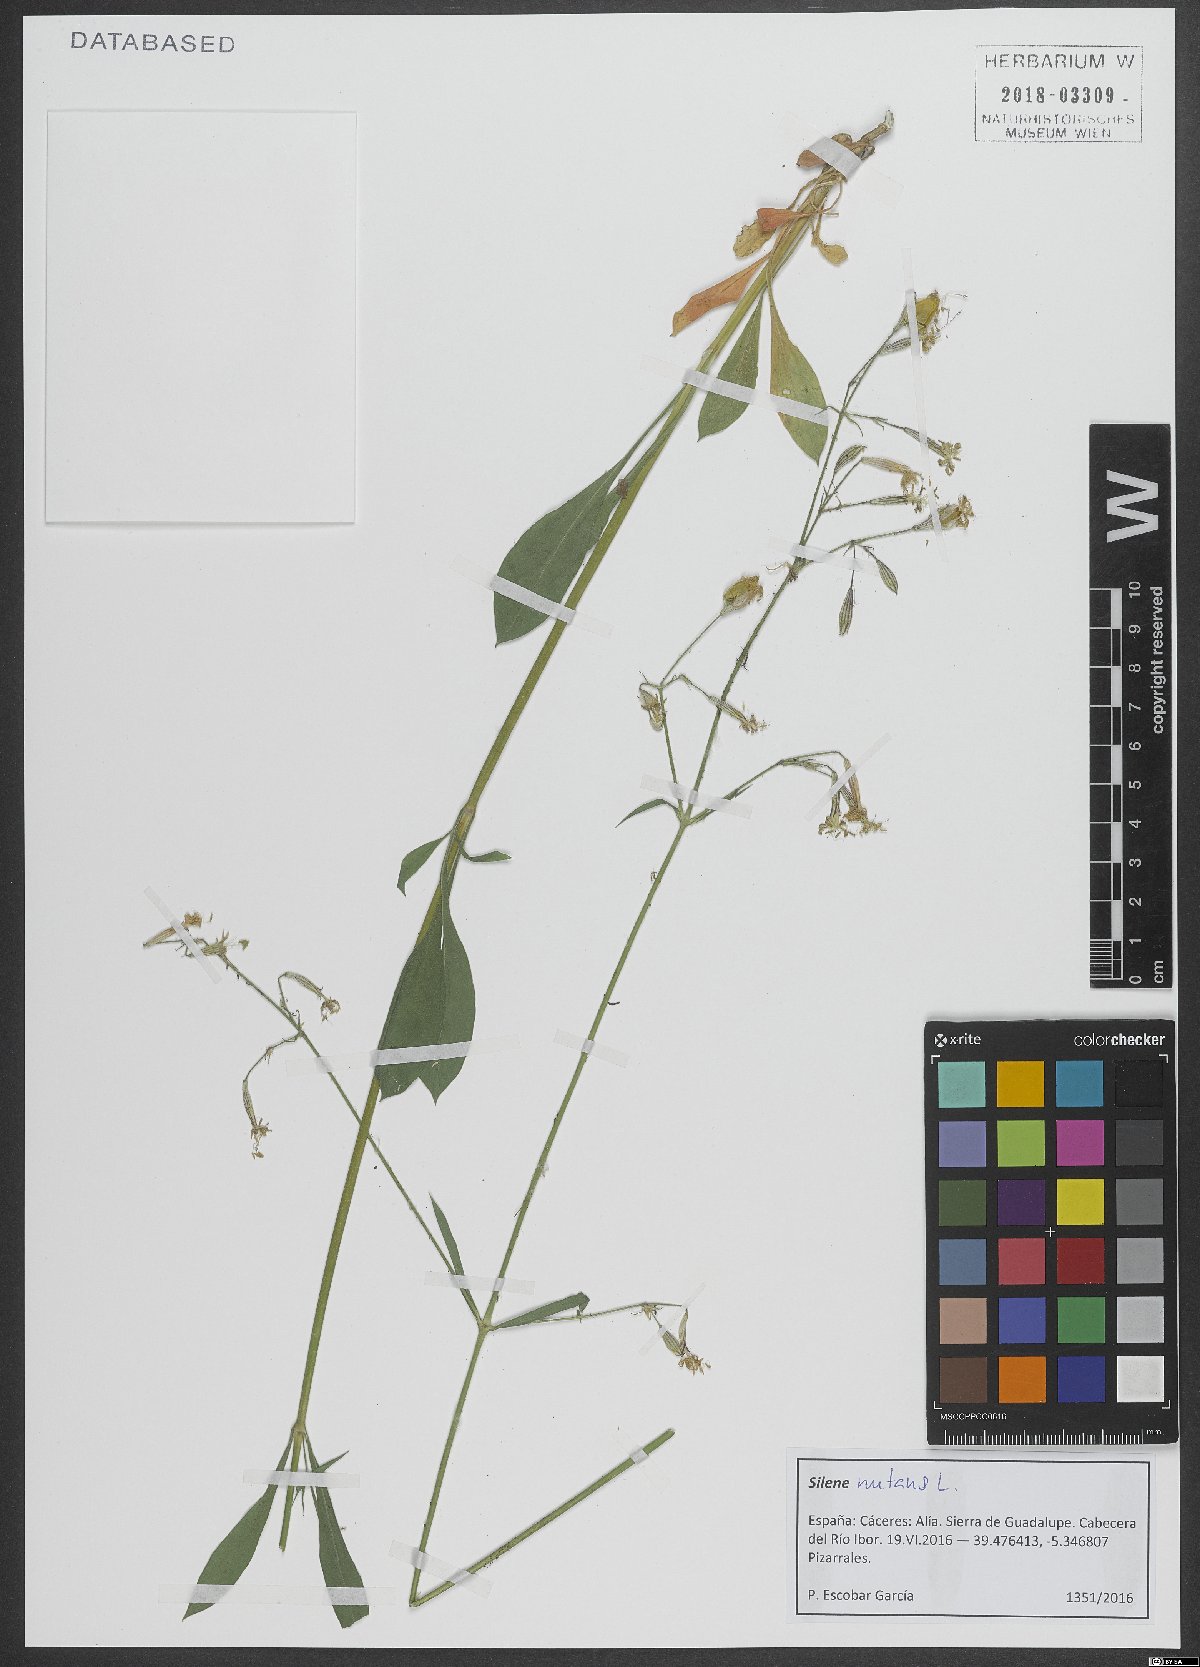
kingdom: Plantae
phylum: Tracheophyta
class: Magnoliopsida
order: Caryophyllales
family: Caryophyllaceae
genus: Silene
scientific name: Silene nutans
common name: Nottingham catchfly
